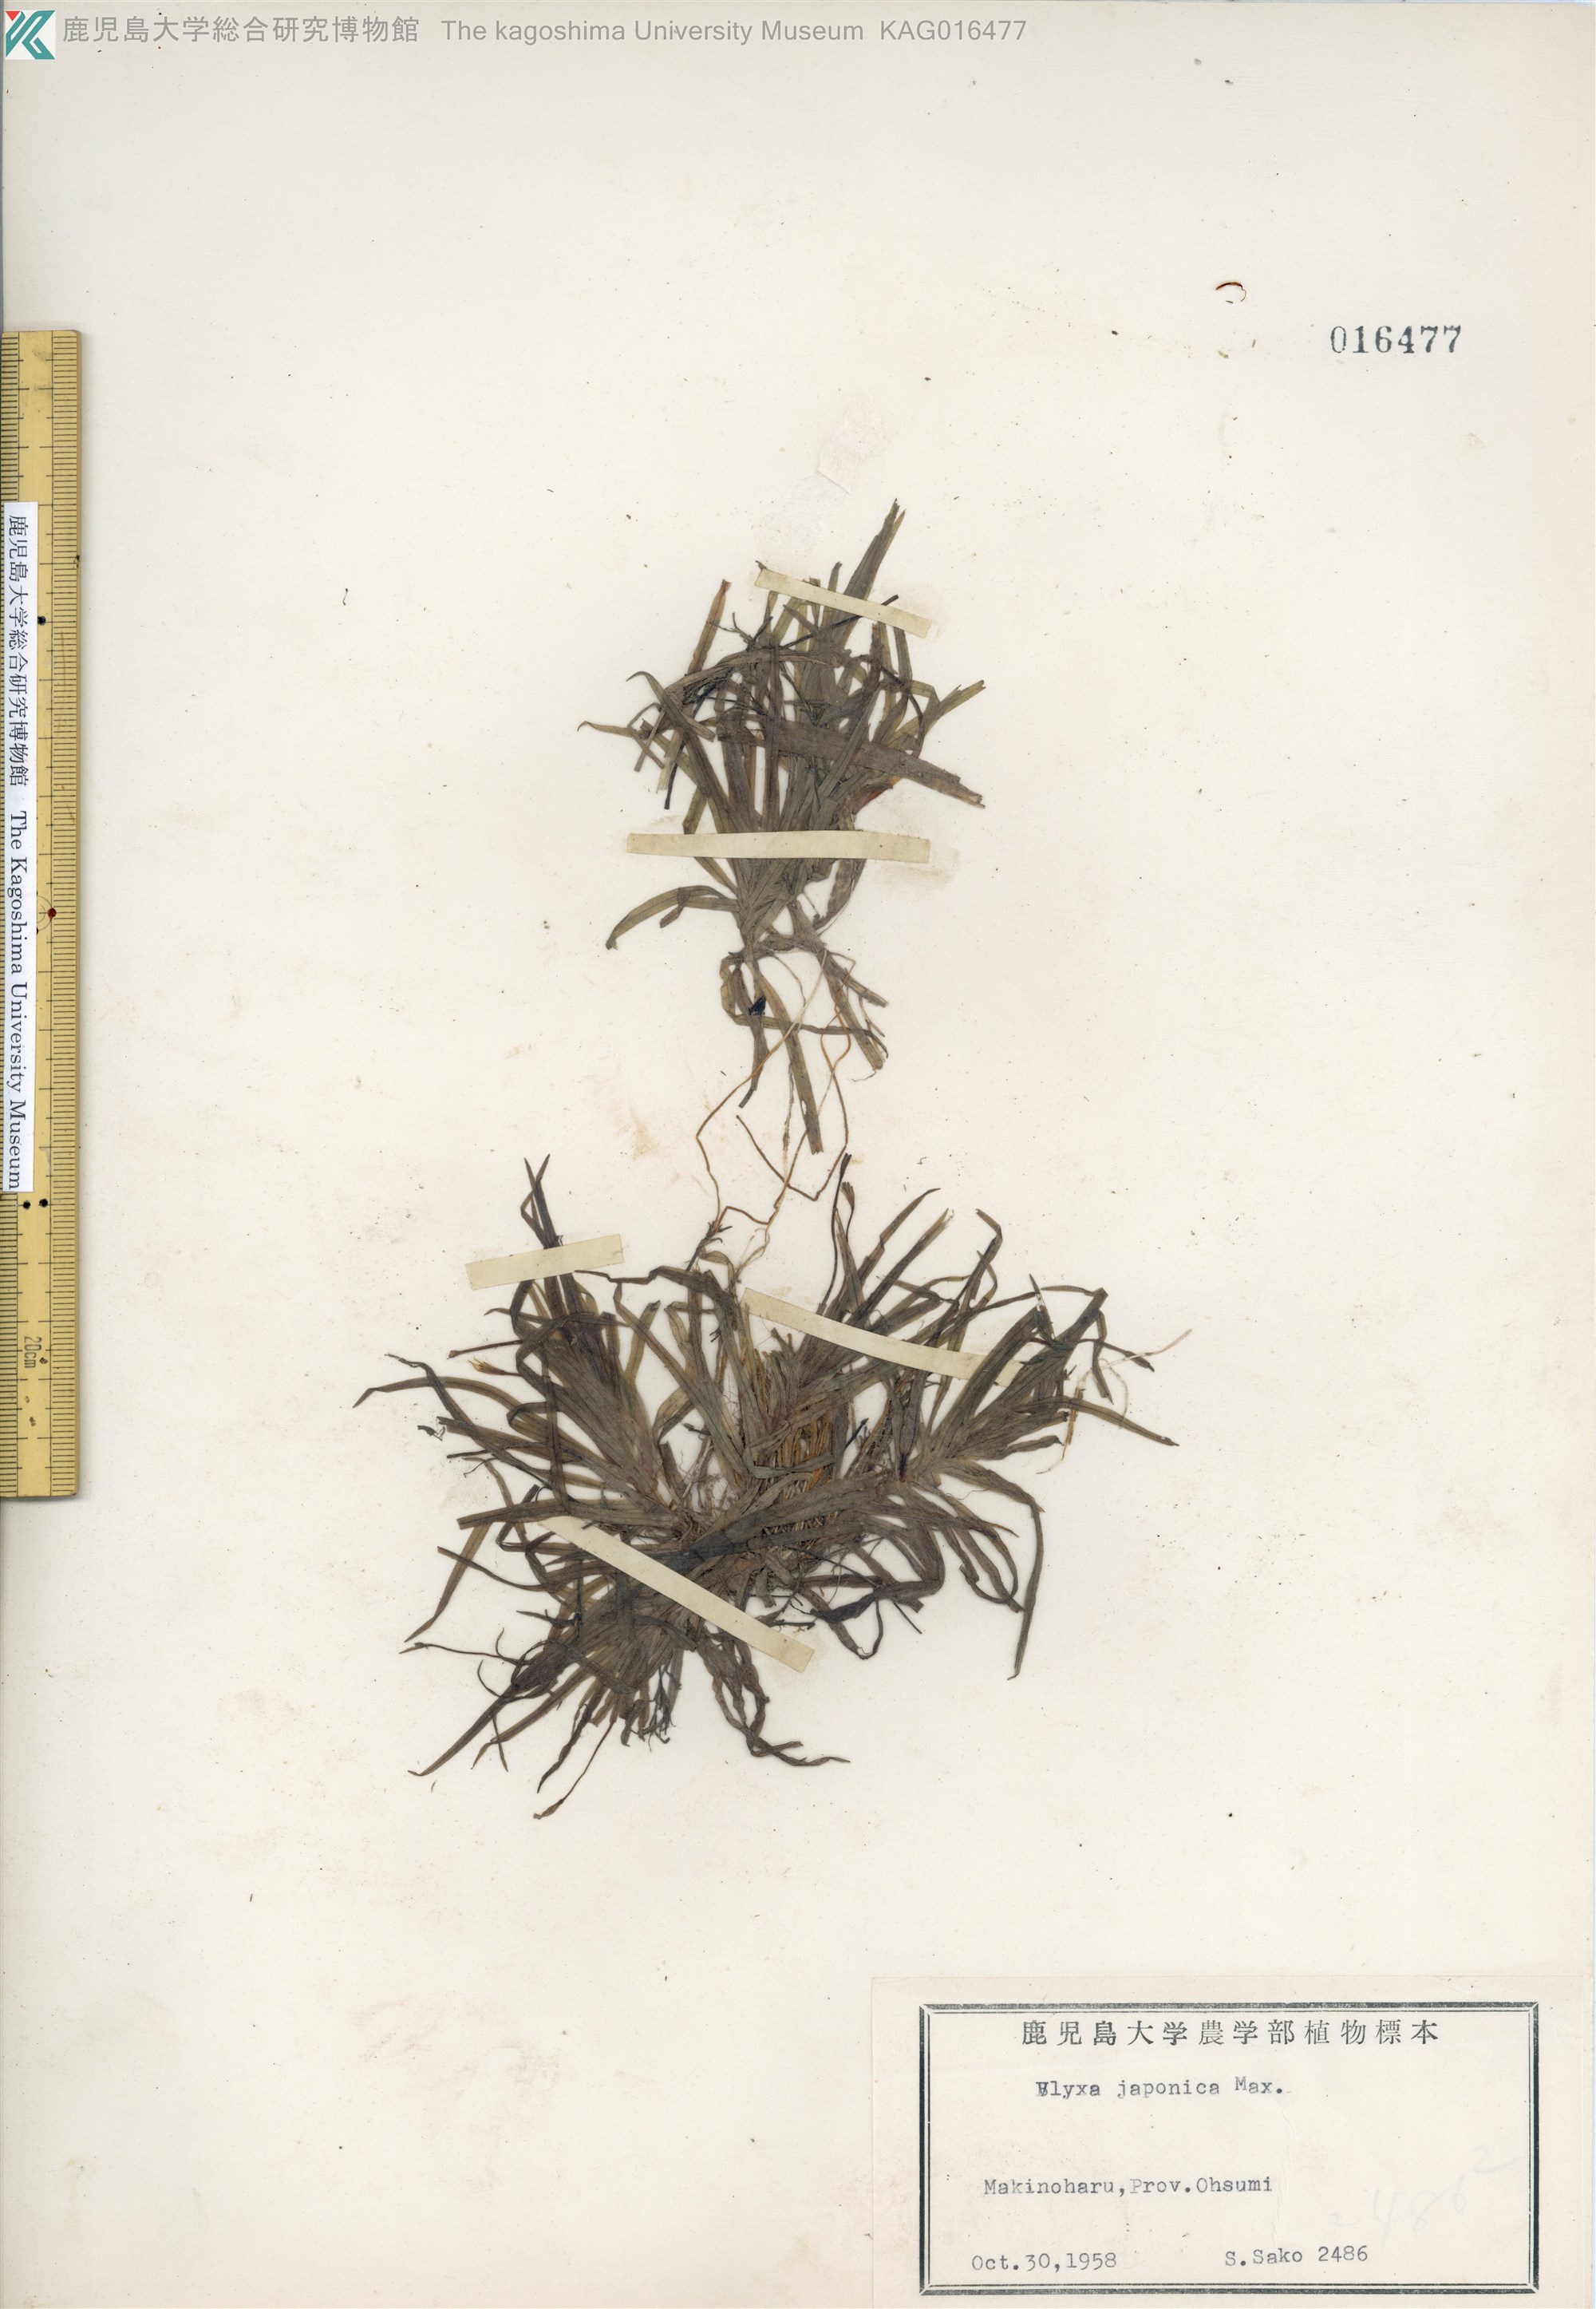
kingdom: Plantae
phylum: Tracheophyta
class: Liliopsida
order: Alismatales
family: Hydrocharitaceae
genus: Blyxa
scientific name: Blyxa japonica
